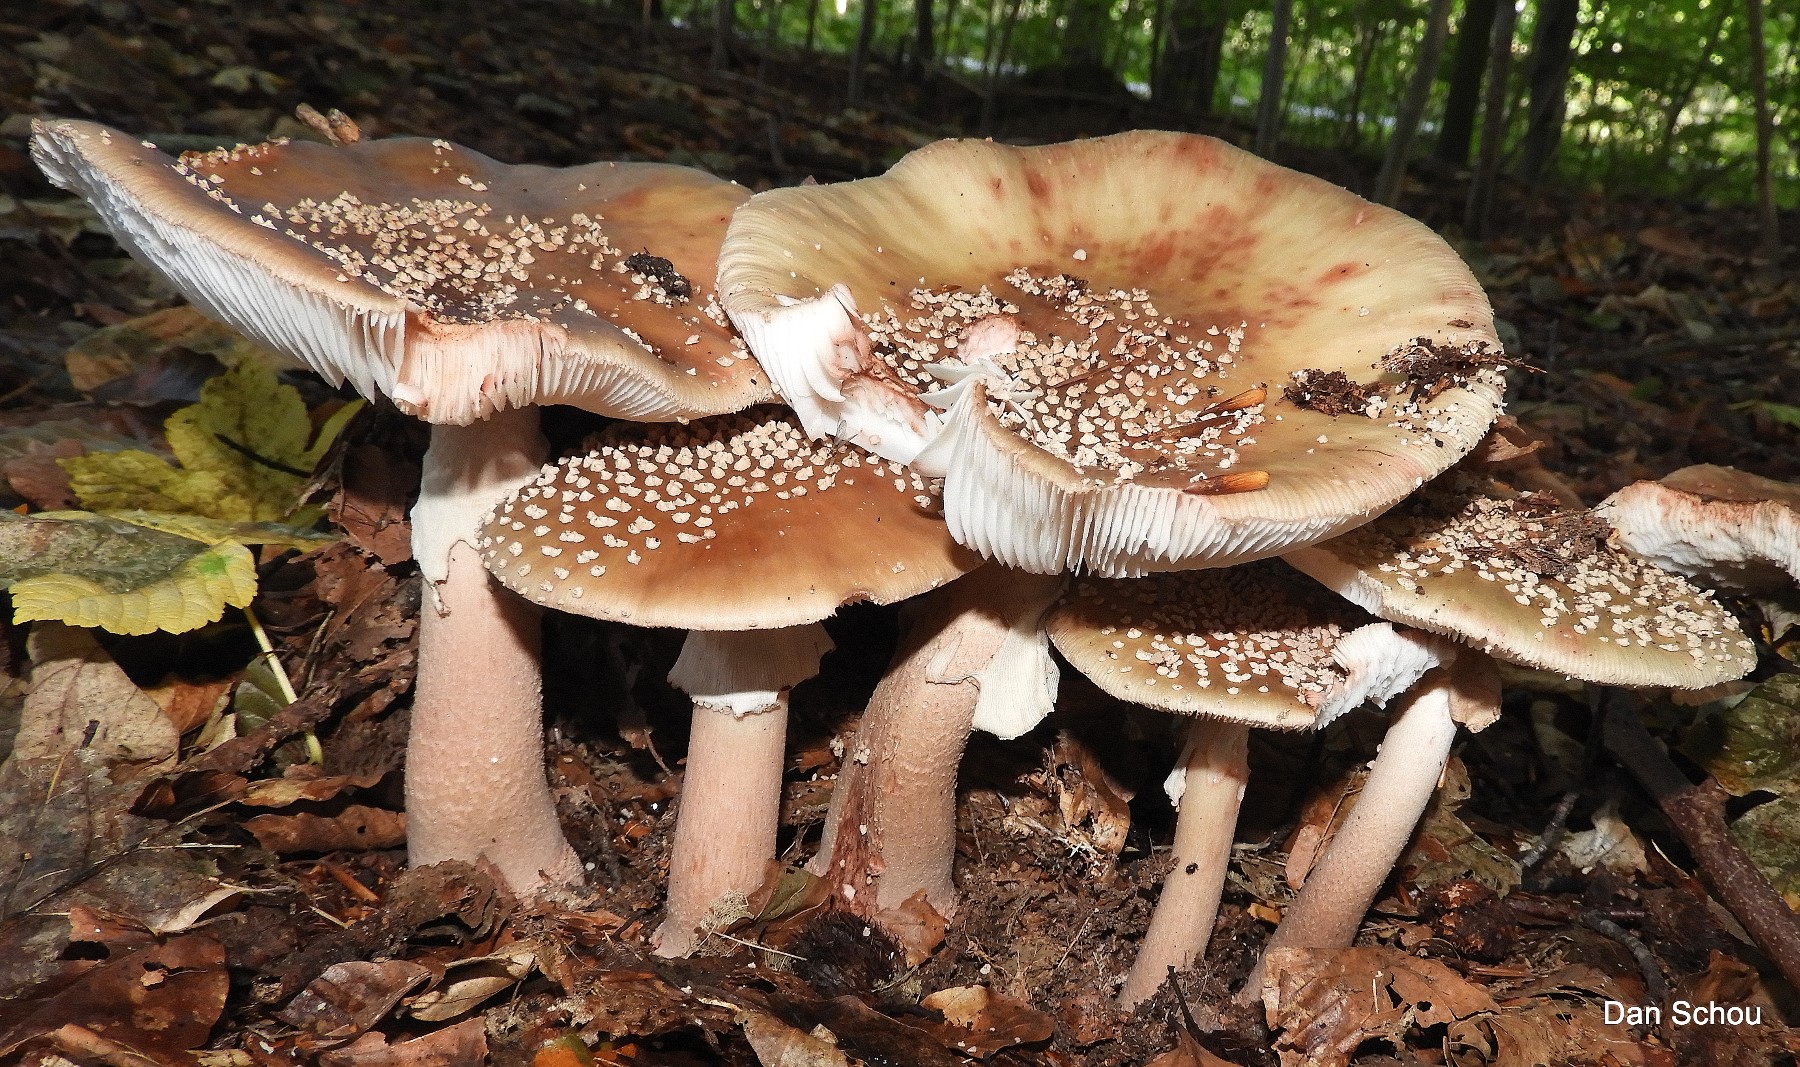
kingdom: Fungi
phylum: Basidiomycota
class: Agaricomycetes
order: Agaricales
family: Amanitaceae
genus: Amanita
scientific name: Amanita rubescens
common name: rødmende fluesvamp
